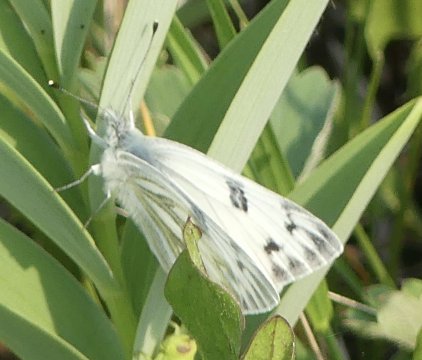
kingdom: Animalia
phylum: Arthropoda
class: Insecta
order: Lepidoptera
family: Pieridae
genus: Pontia
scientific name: Pontia occidentalis
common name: Western White
